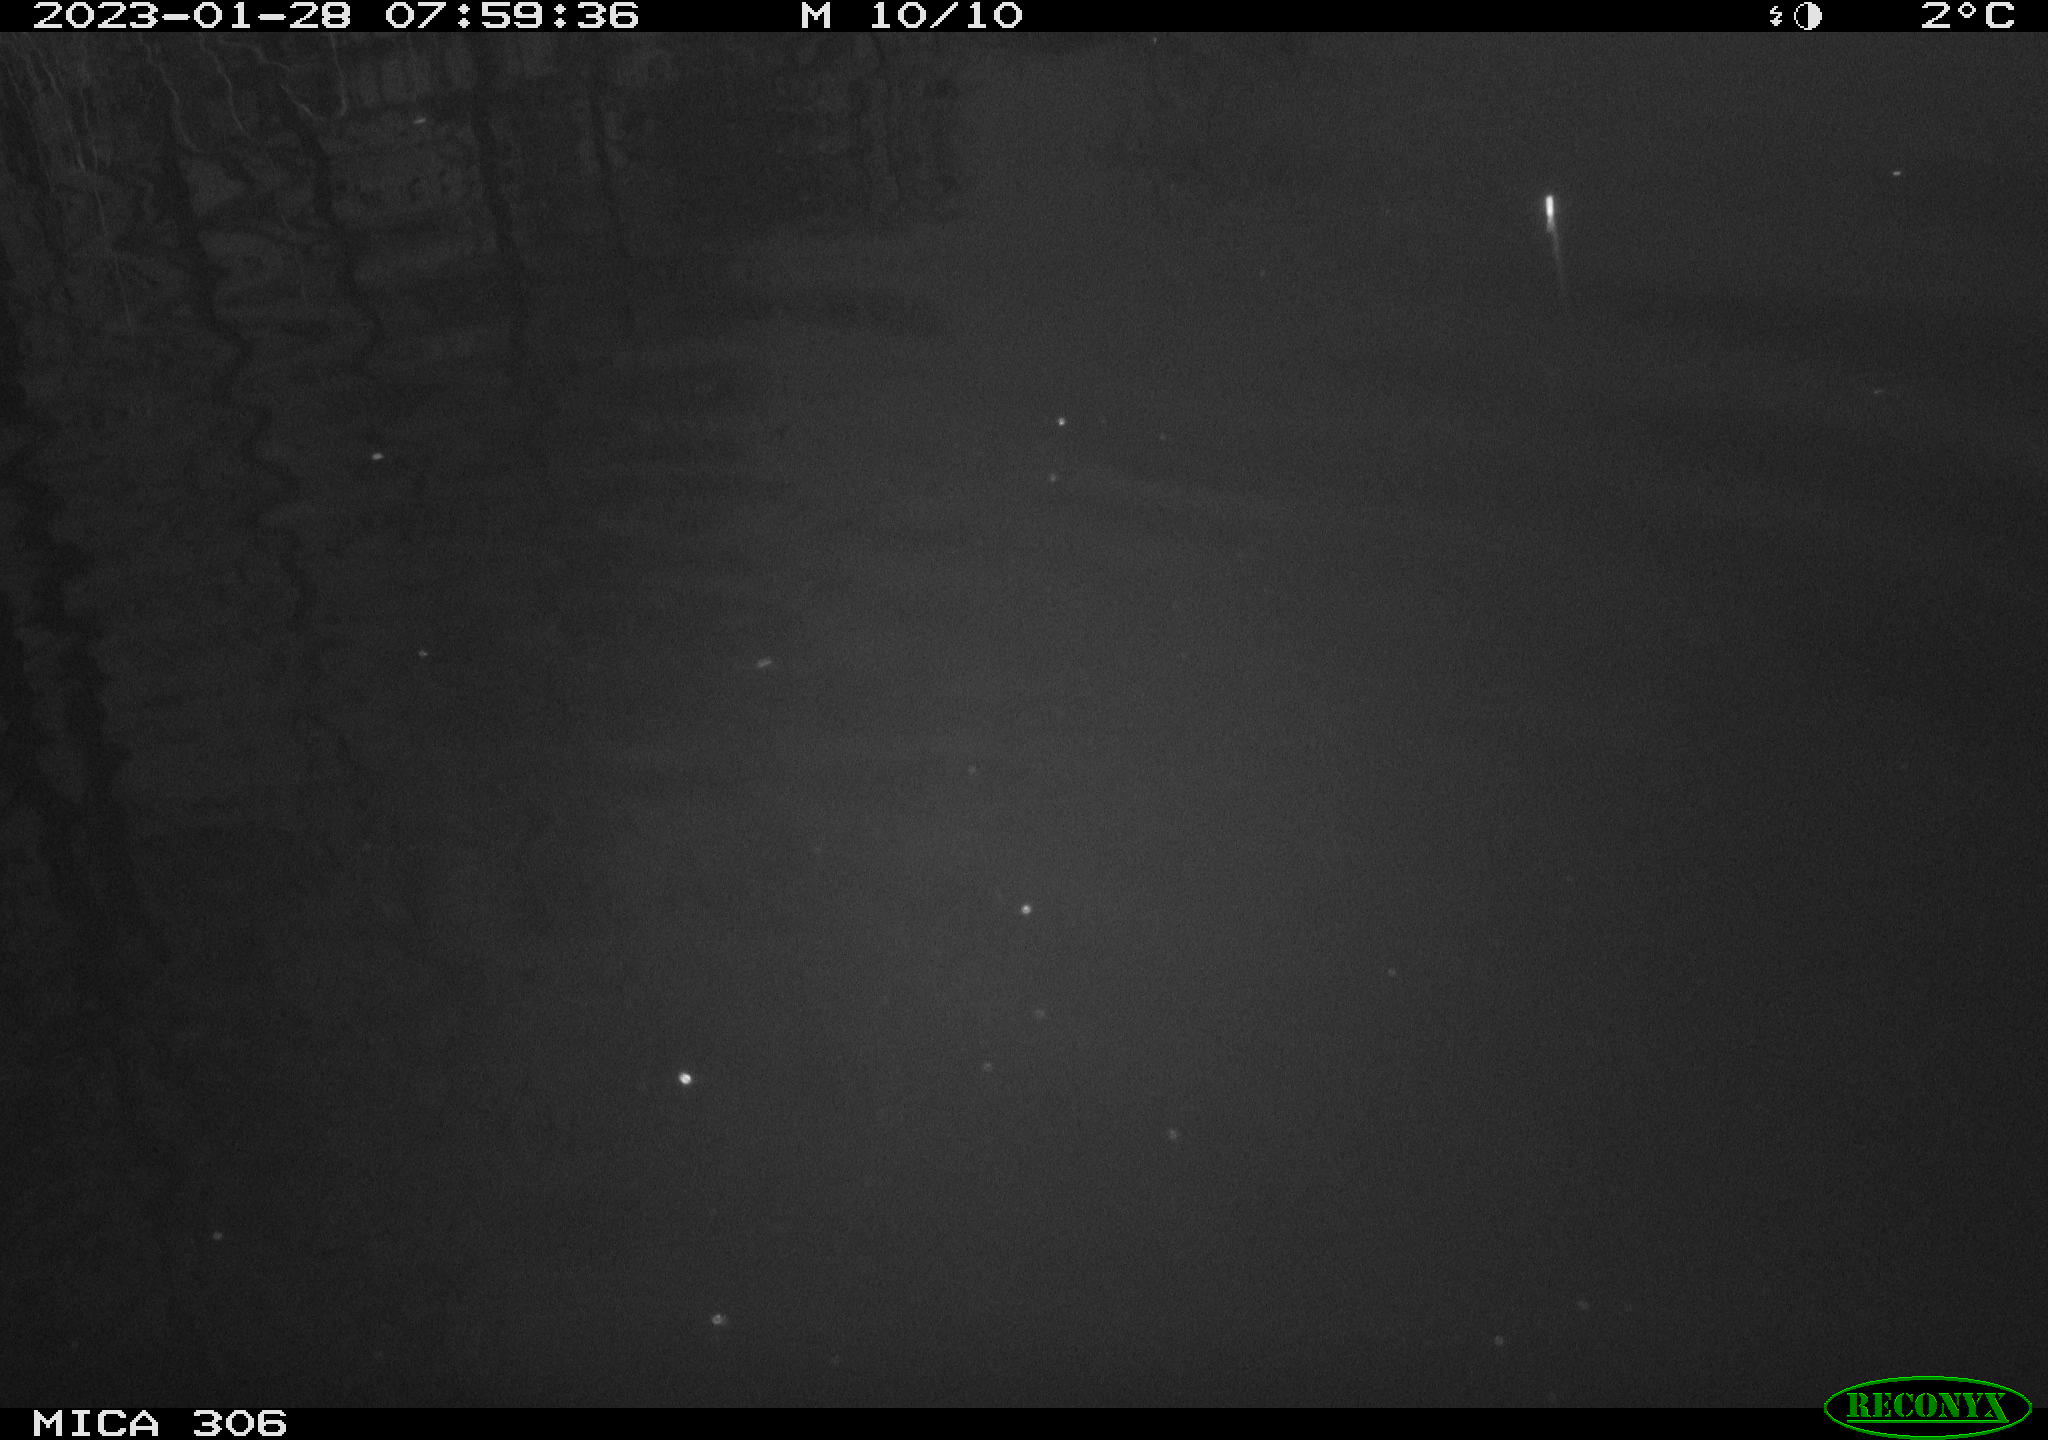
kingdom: Animalia
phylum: Chordata
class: Mammalia
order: Rodentia
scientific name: Rodentia
